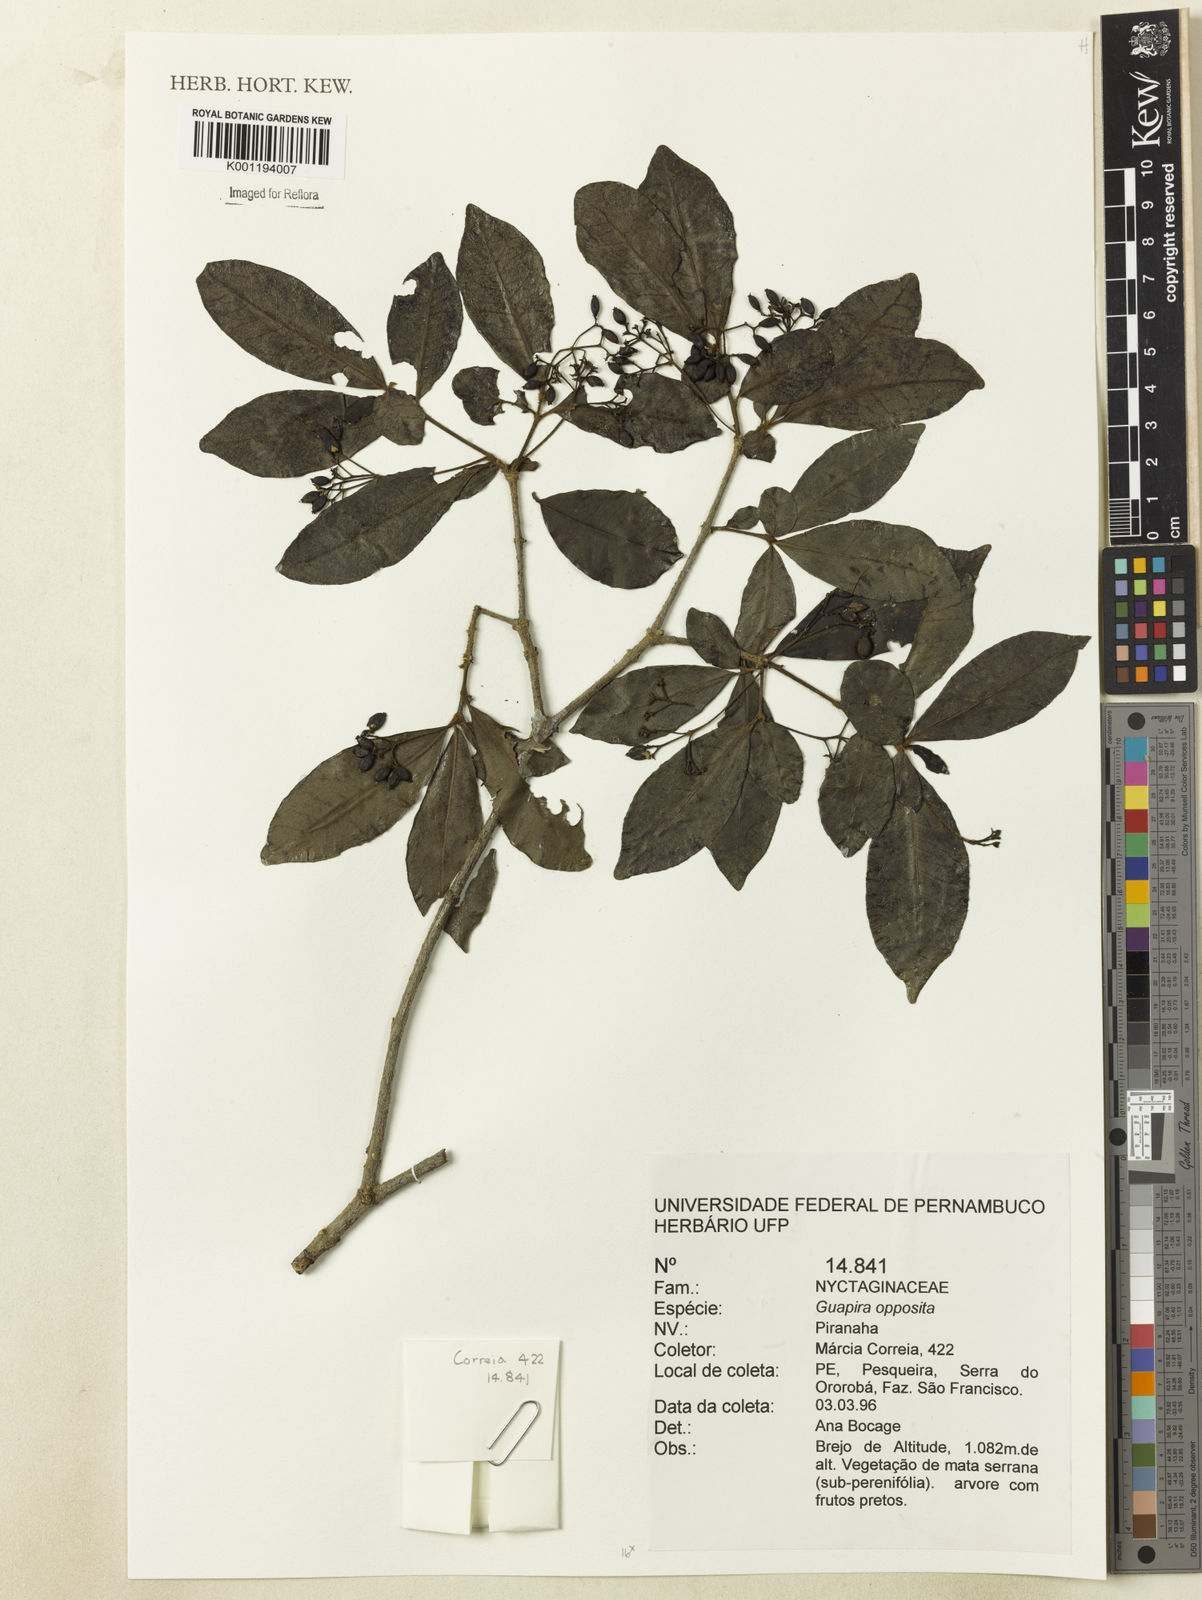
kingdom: Plantae
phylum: Tracheophyta
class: Magnoliopsida
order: Caryophyllales
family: Nyctaginaceae
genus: Guapira
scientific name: Guapira opposita
